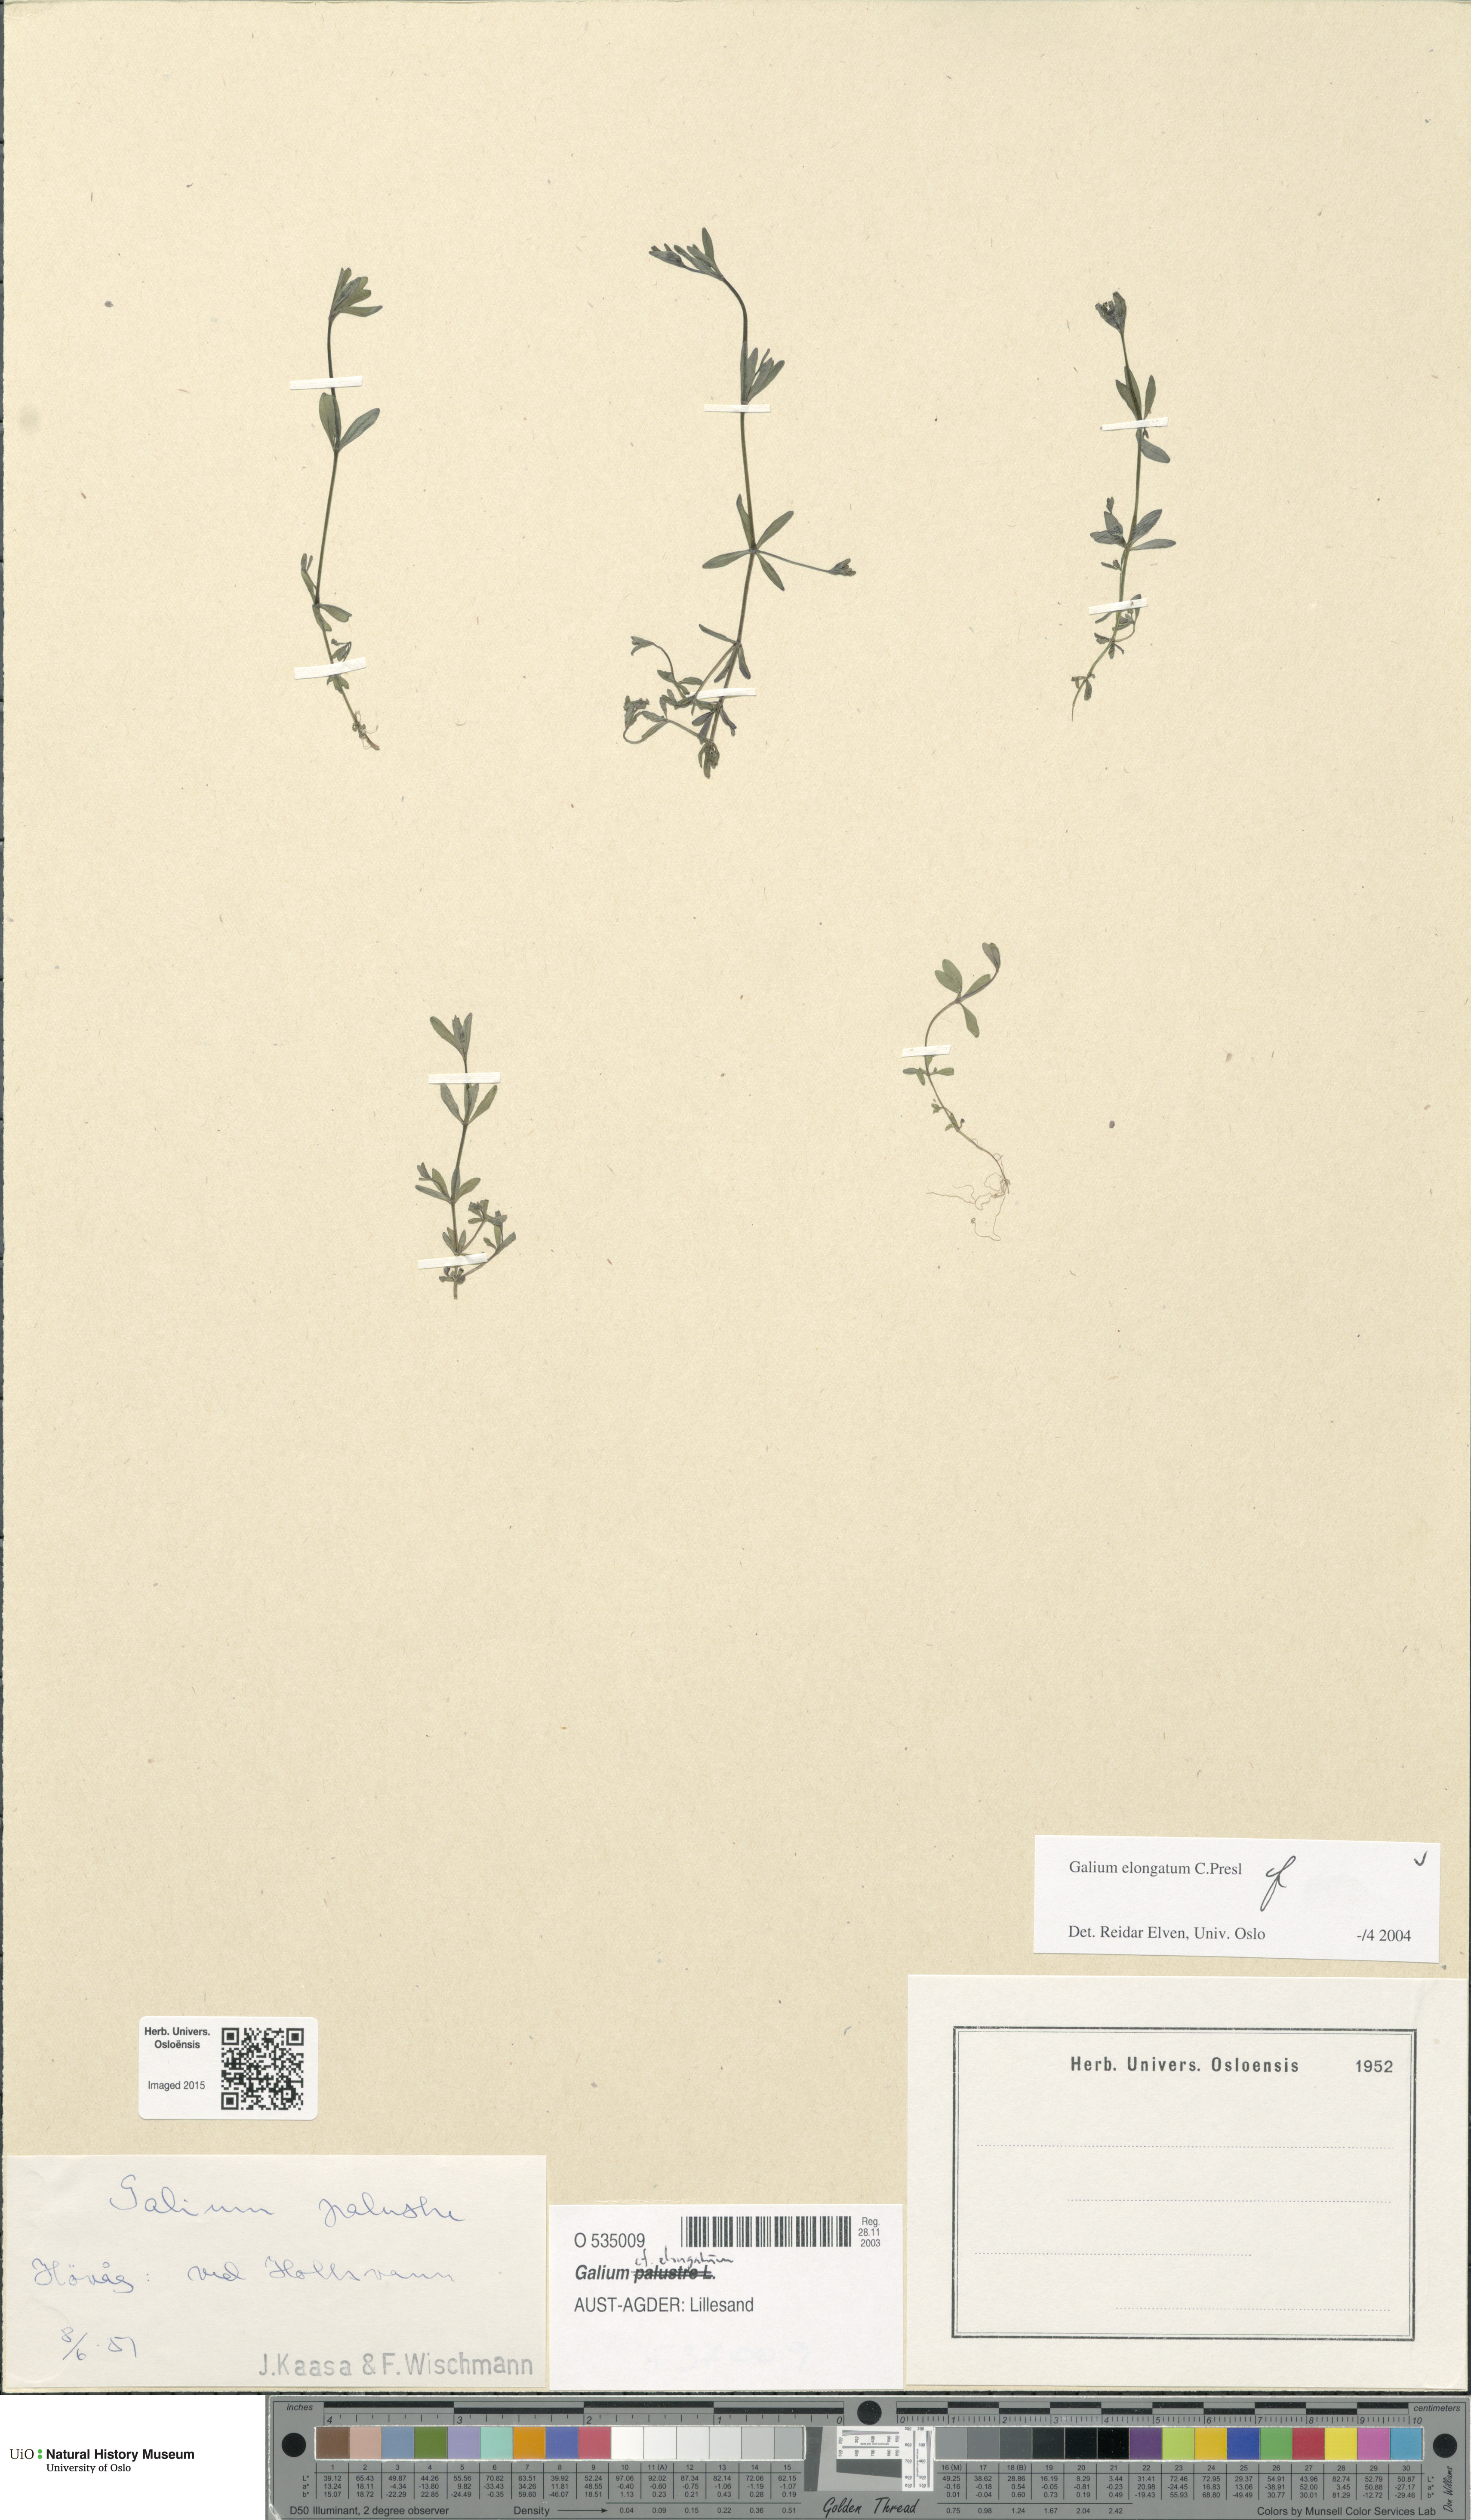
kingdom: Plantae
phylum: Tracheophyta
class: Magnoliopsida
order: Gentianales
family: Rubiaceae
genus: Galium
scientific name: Galium elongatum
